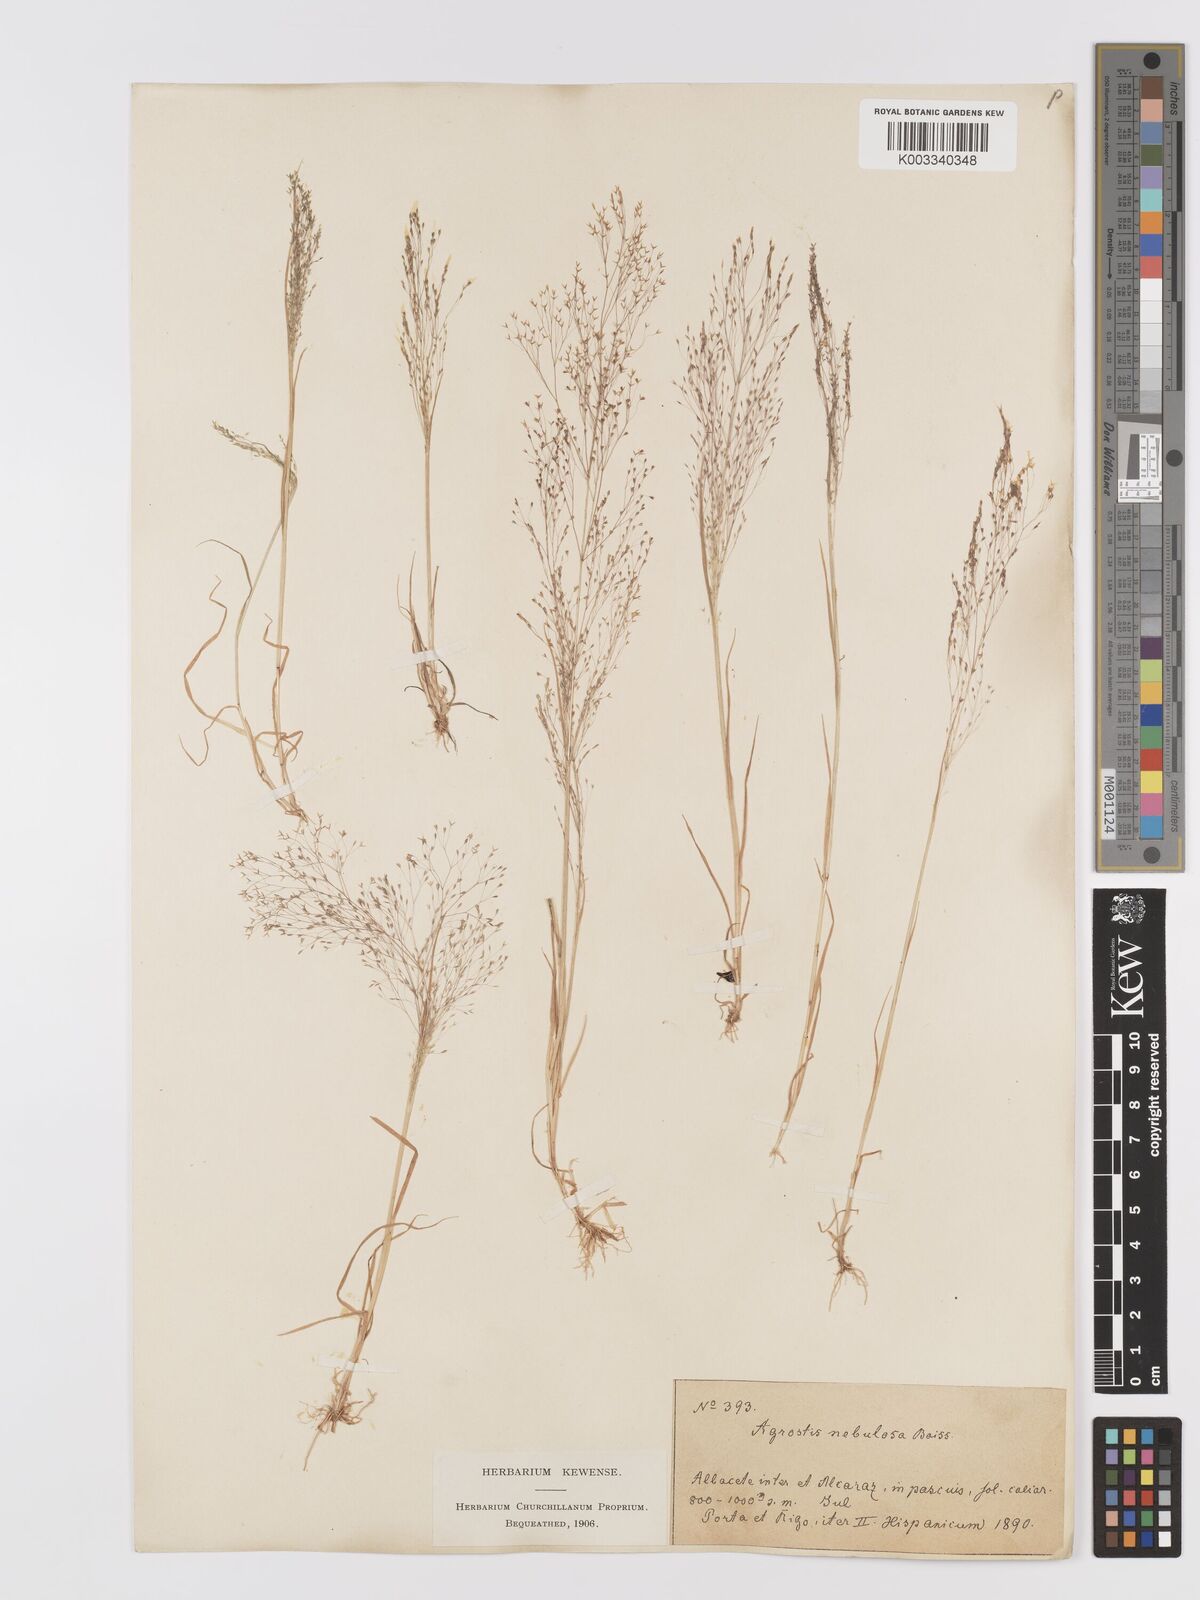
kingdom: Plantae
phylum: Tracheophyta
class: Liliopsida
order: Poales
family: Poaceae
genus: Agrostis
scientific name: Agrostis nebulosa
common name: Cloud grass
